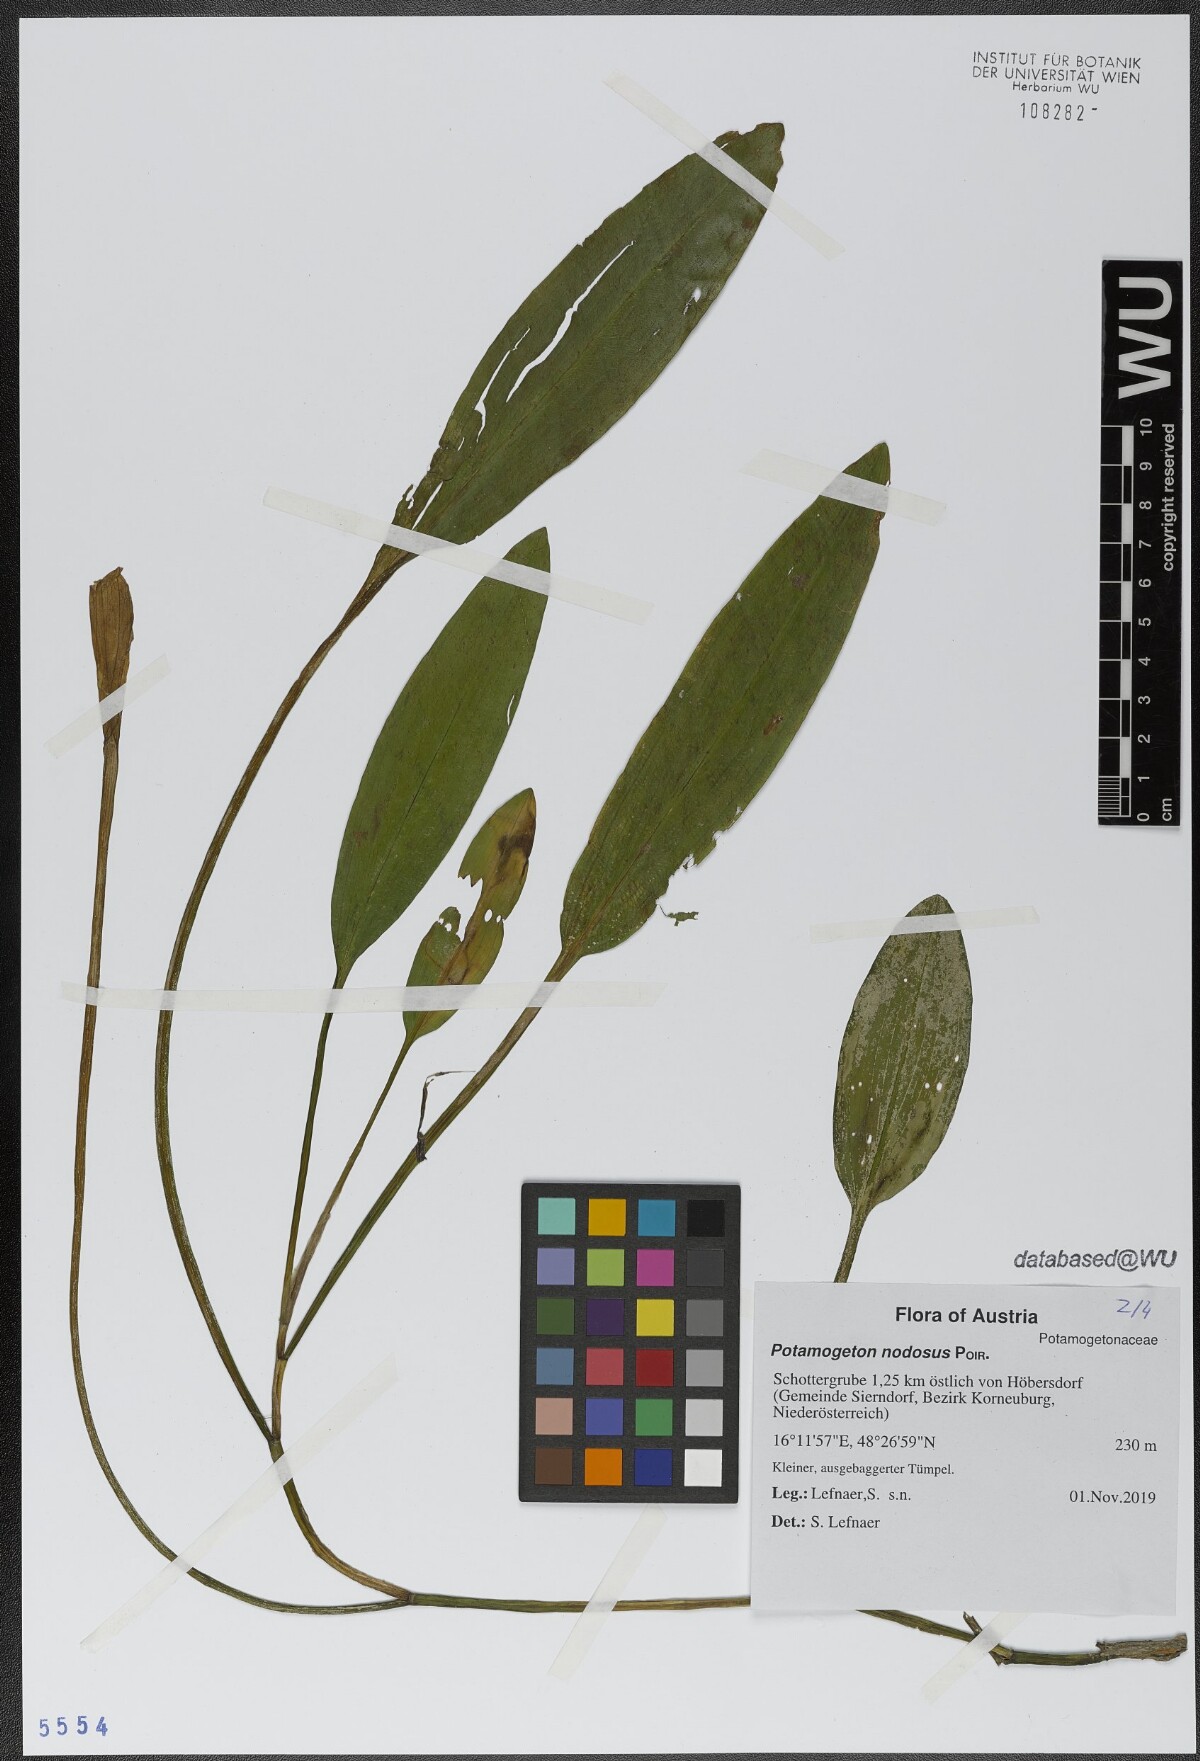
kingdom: Plantae
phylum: Tracheophyta
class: Liliopsida
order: Alismatales
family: Potamogetonaceae
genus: Potamogeton
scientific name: Potamogeton nodosus
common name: Loddon pondweed
